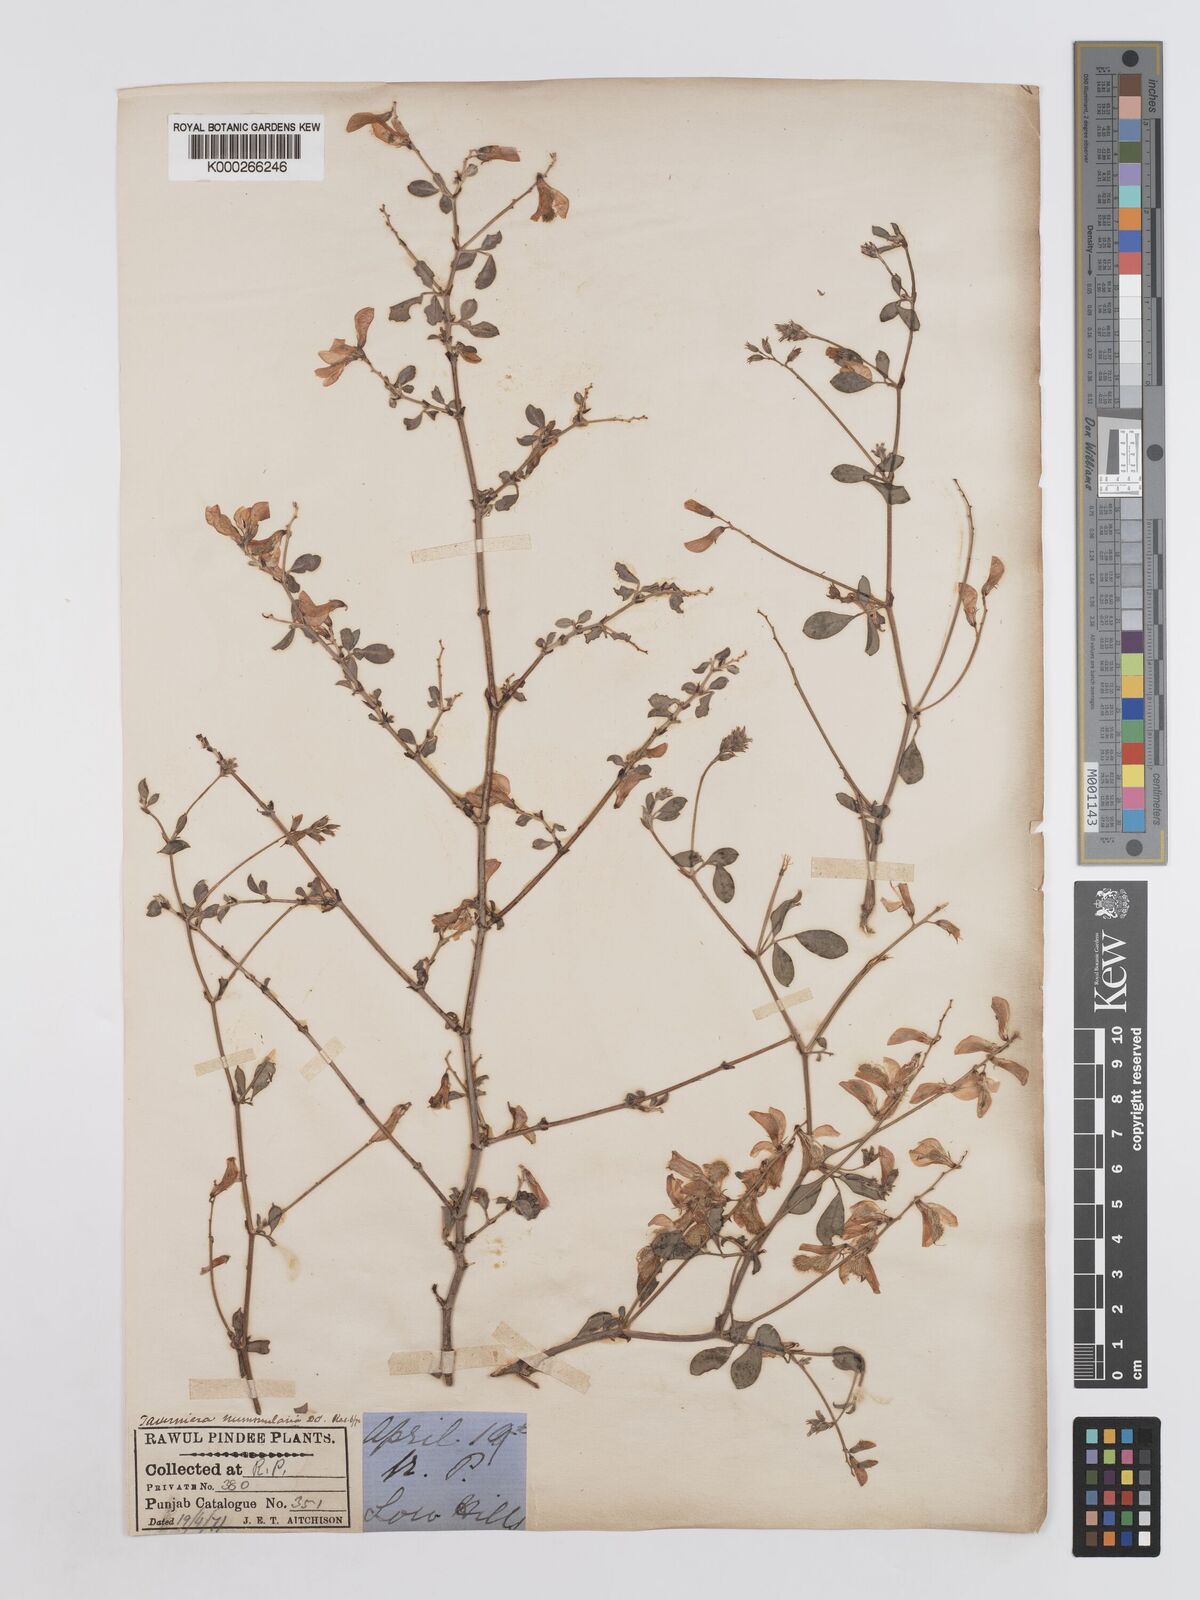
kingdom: Plantae
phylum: Tracheophyta
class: Magnoliopsida
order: Fabales
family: Fabaceae
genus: Taverniera
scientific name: Taverniera nummularia
